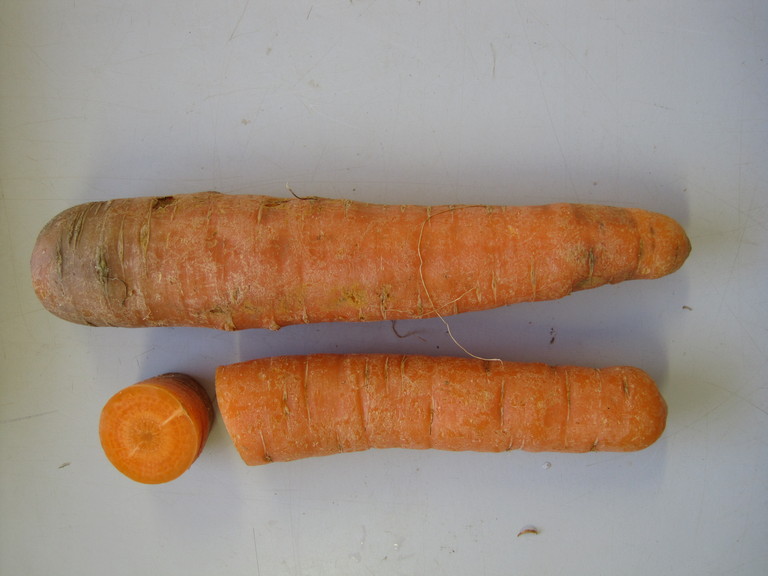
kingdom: Plantae
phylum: Tracheophyta
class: Magnoliopsida
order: Apiales
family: Apiaceae
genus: Daucus
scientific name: Daucus carota
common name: Wild carrot
